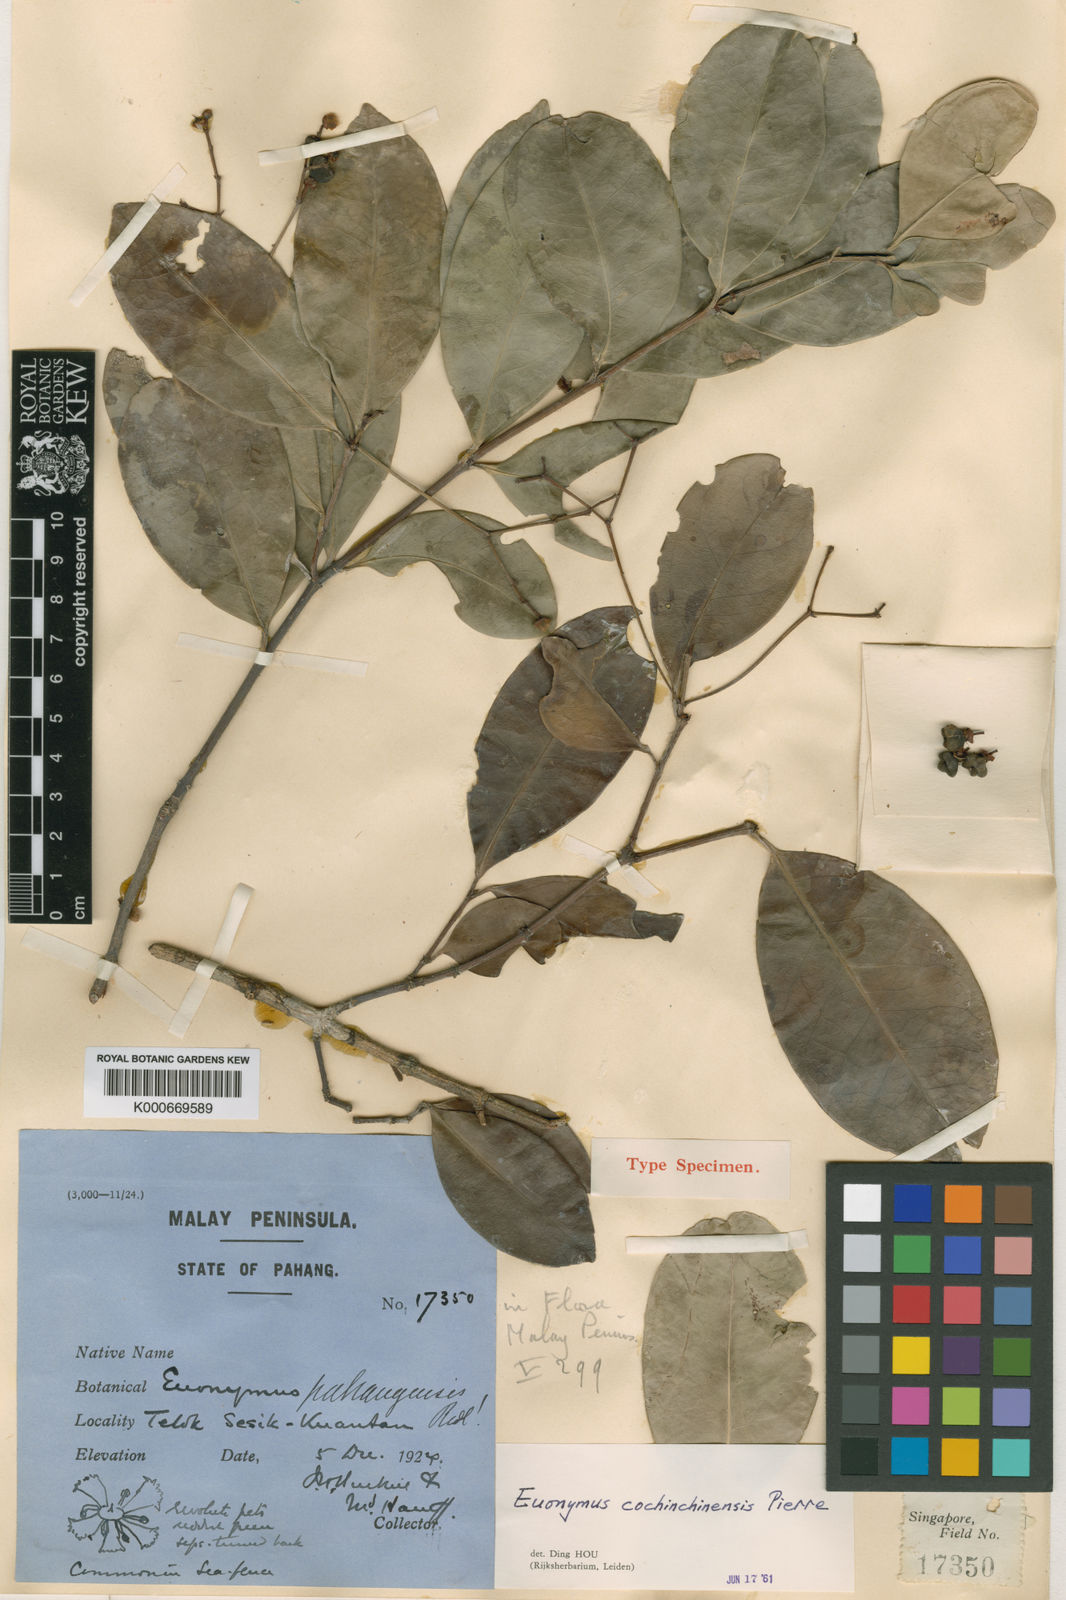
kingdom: Plantae
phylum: Tracheophyta
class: Magnoliopsida
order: Celastrales
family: Celastraceae
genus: Euonymus
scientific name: Euonymus cochinchinensis
